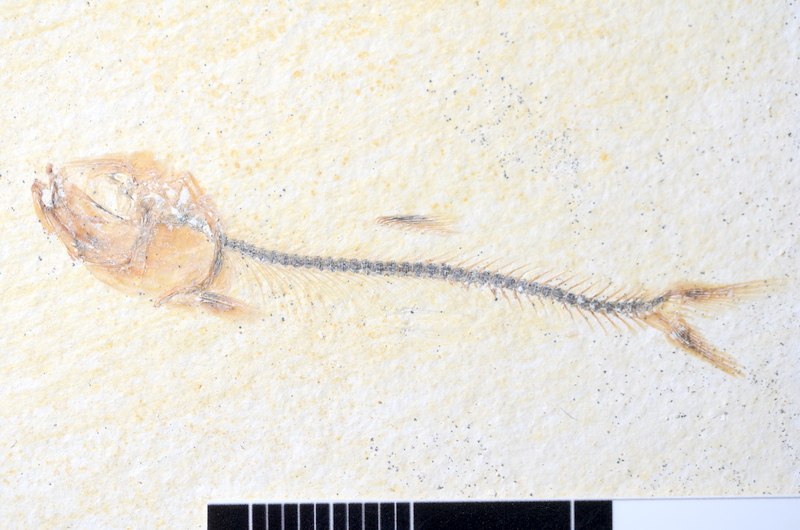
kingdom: Animalia
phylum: Chordata
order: Salmoniformes
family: Orthogonikleithridae
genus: Orthogonikleithrus
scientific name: Orthogonikleithrus hoelli
